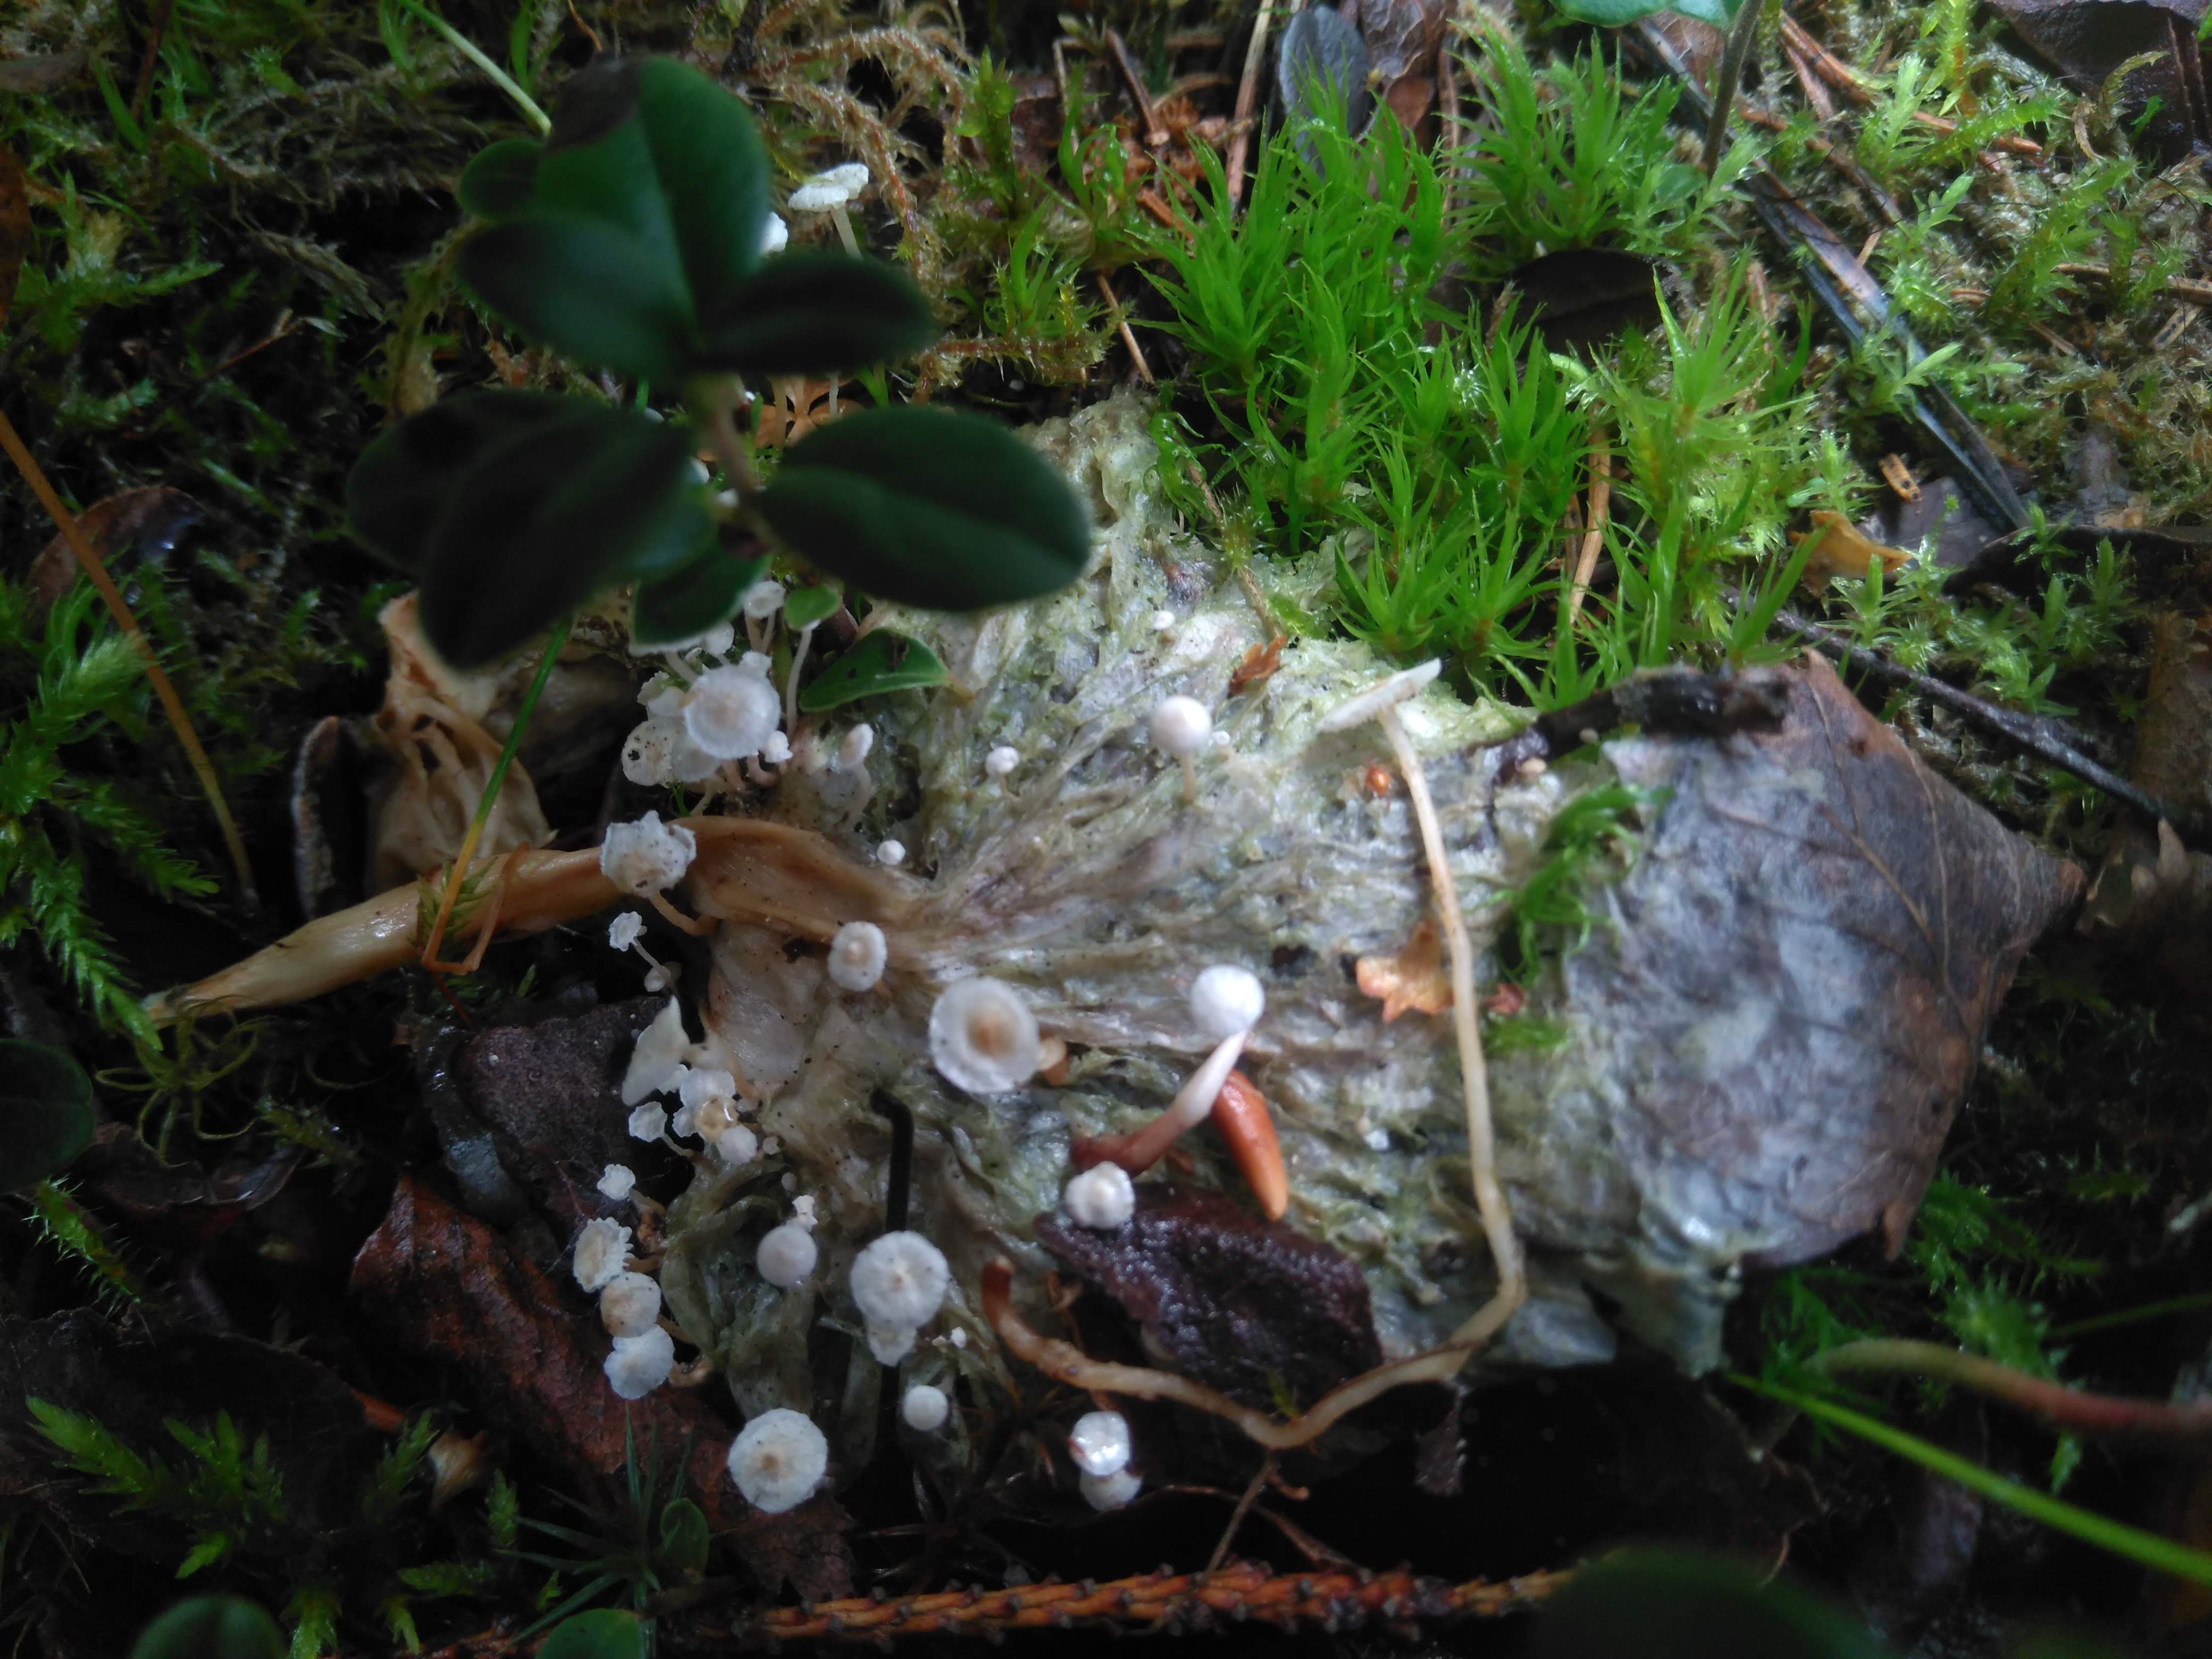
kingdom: Fungi
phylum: Basidiomycota
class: Agaricomycetes
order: Agaricales
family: Tricholomataceae
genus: Collybia
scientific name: Collybia tuberosa
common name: Lentil shanklet
